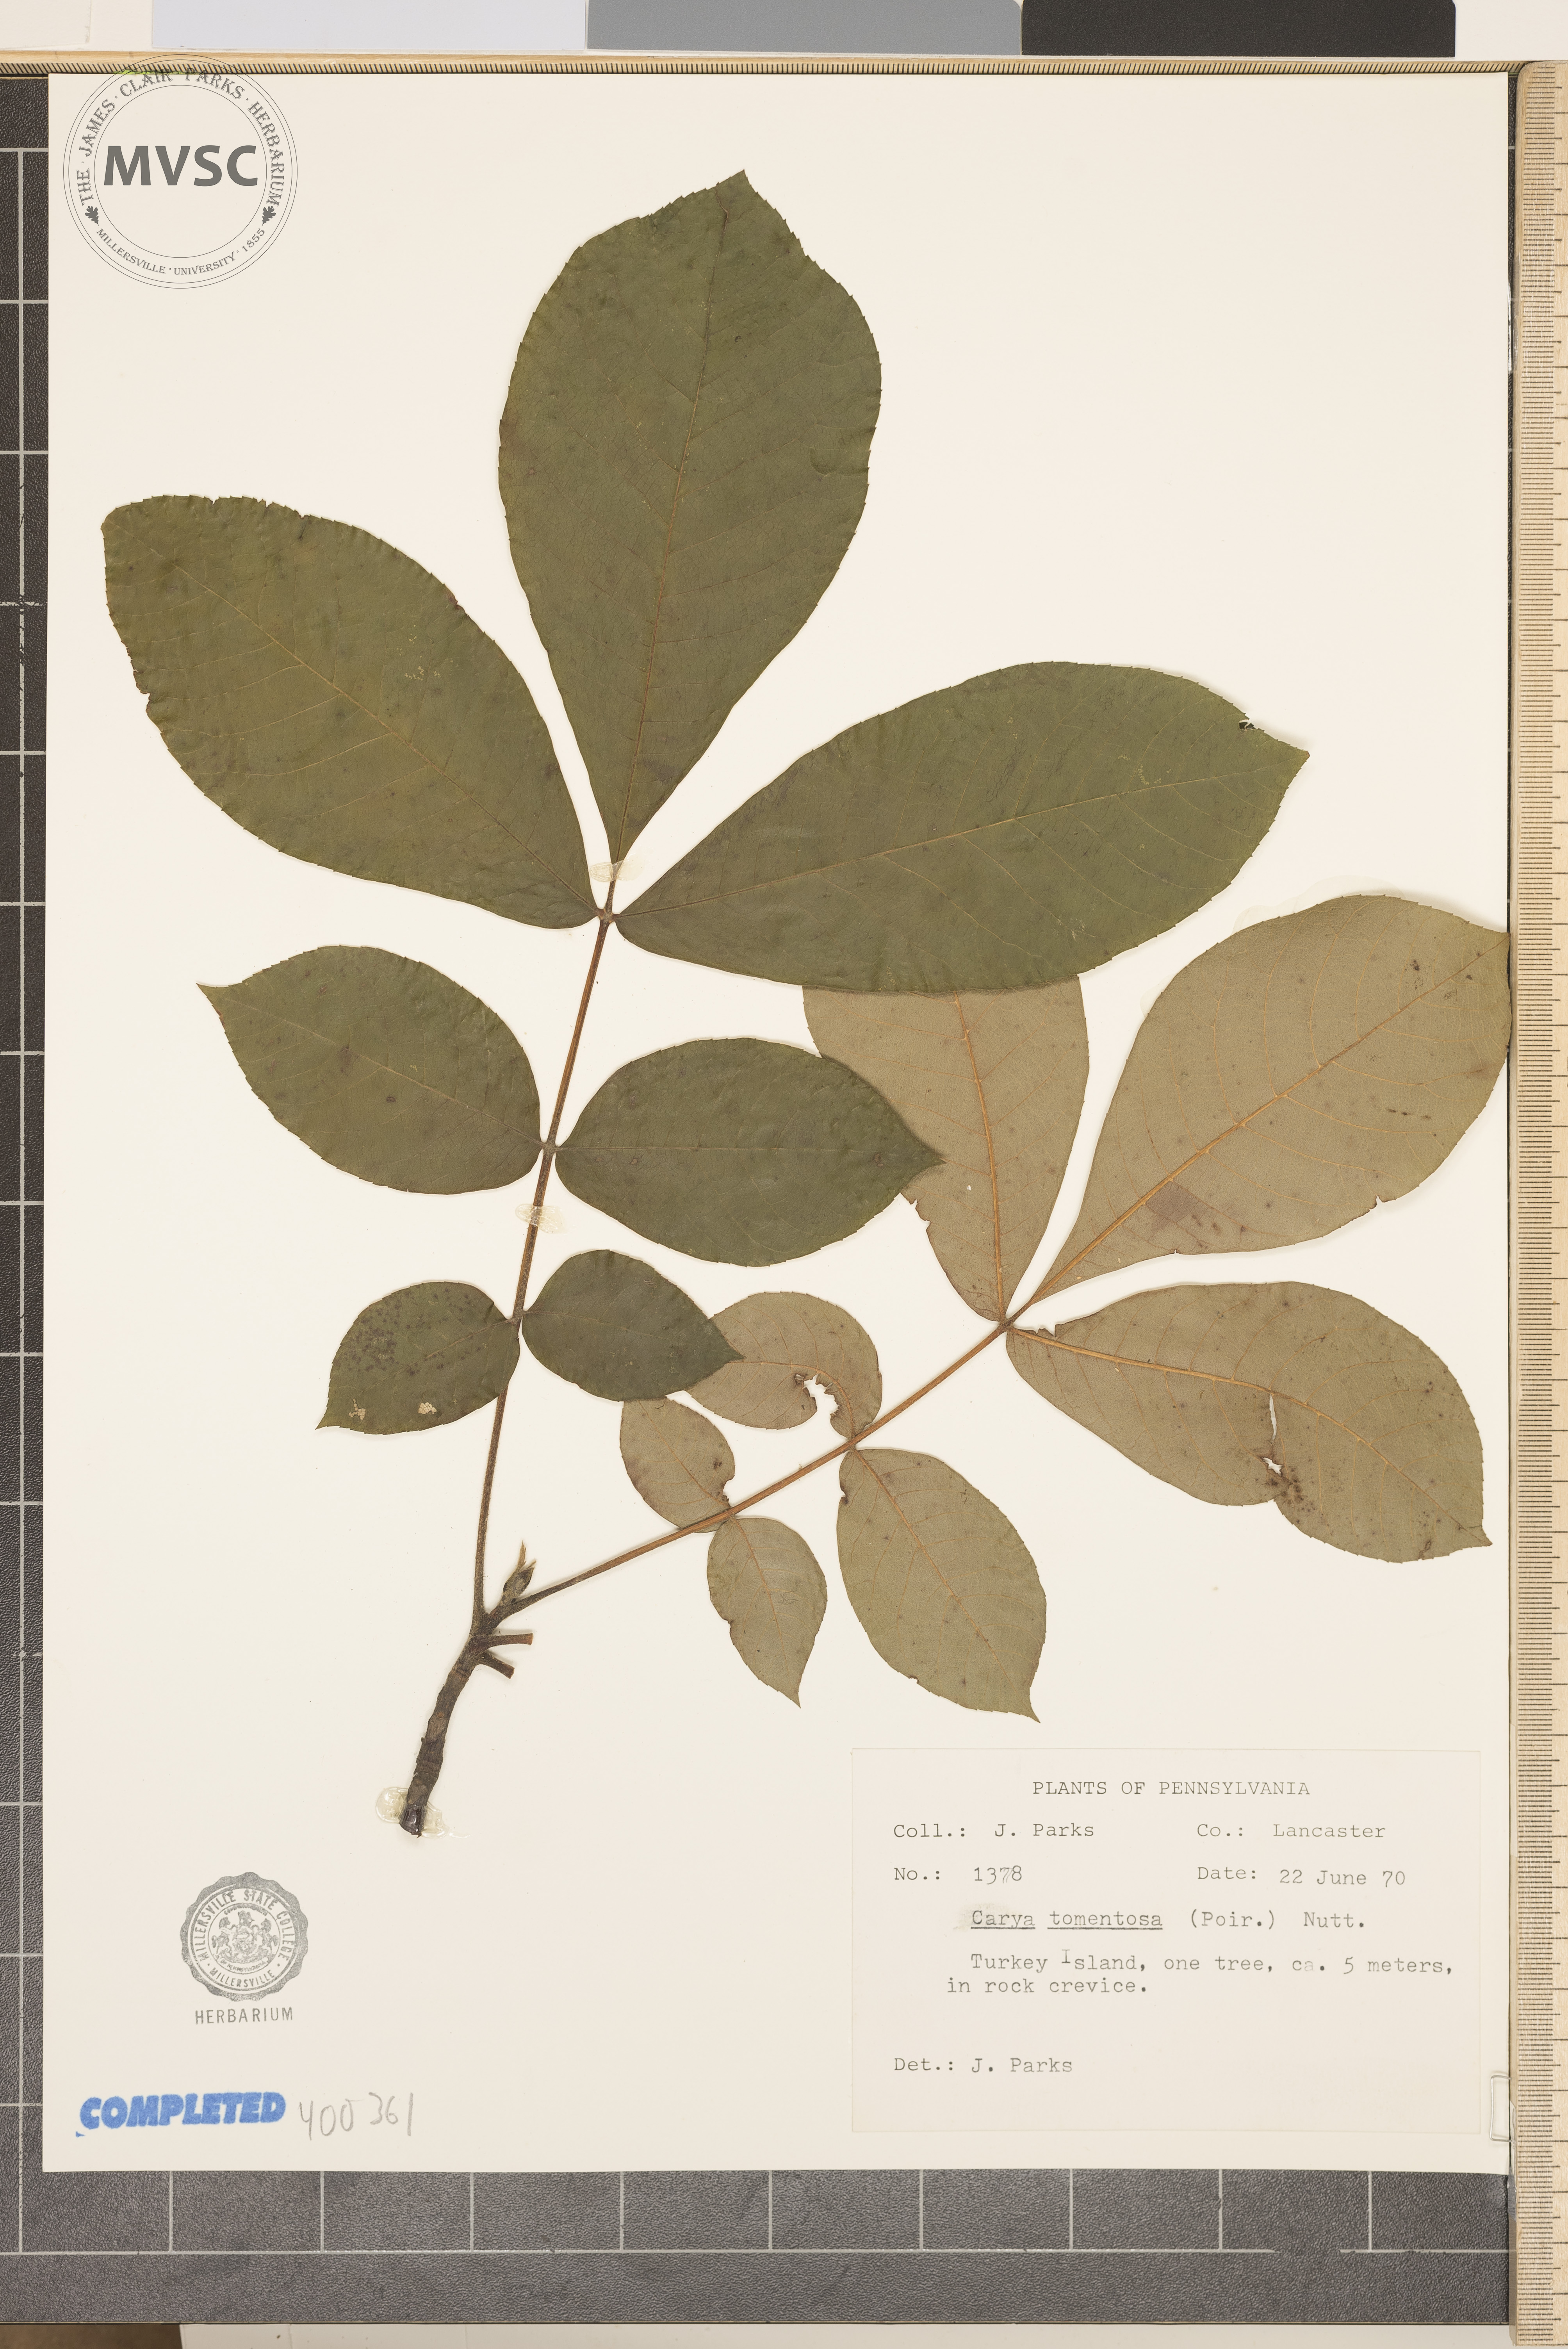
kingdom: Plantae
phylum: Tracheophyta
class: Magnoliopsida
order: Fagales
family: Juglandaceae
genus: Carya
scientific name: Carya alba
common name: mockernut hickory
